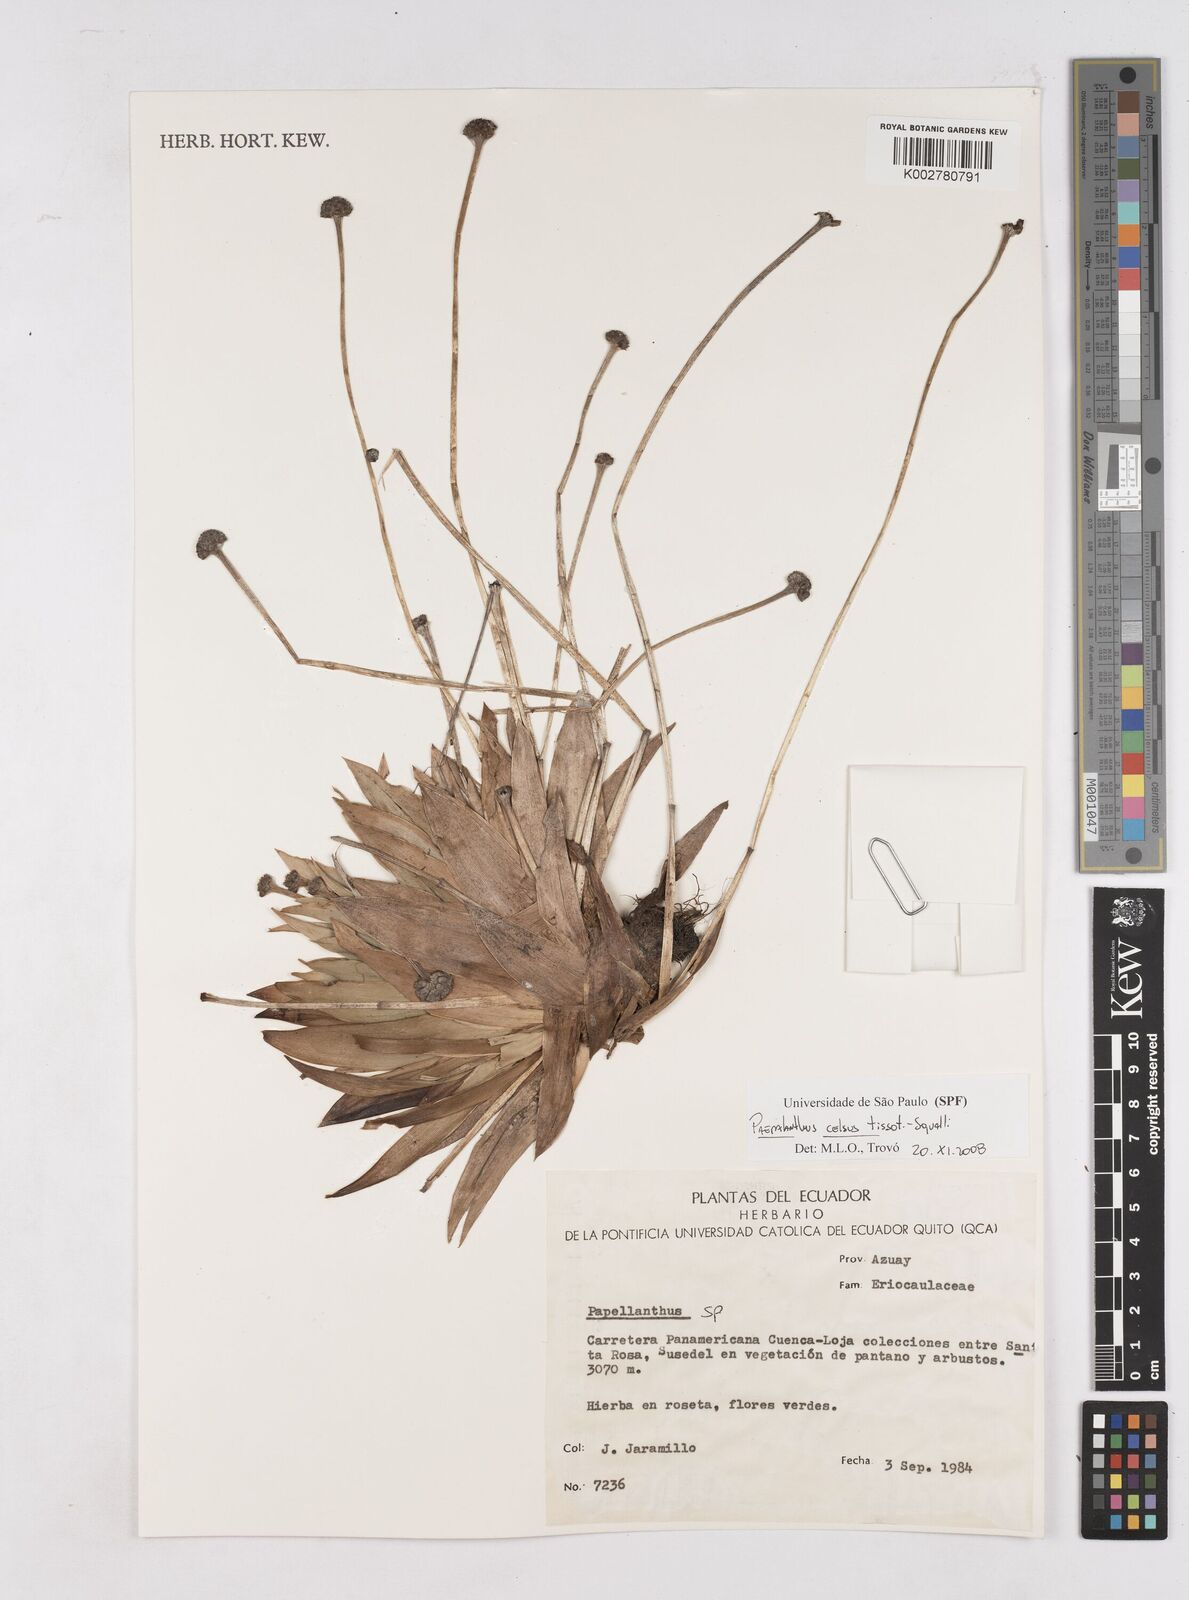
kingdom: Plantae
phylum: Tracheophyta
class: Liliopsida
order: Poales
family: Eriocaulaceae
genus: Paepalanthus
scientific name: Paepalanthus celsus
